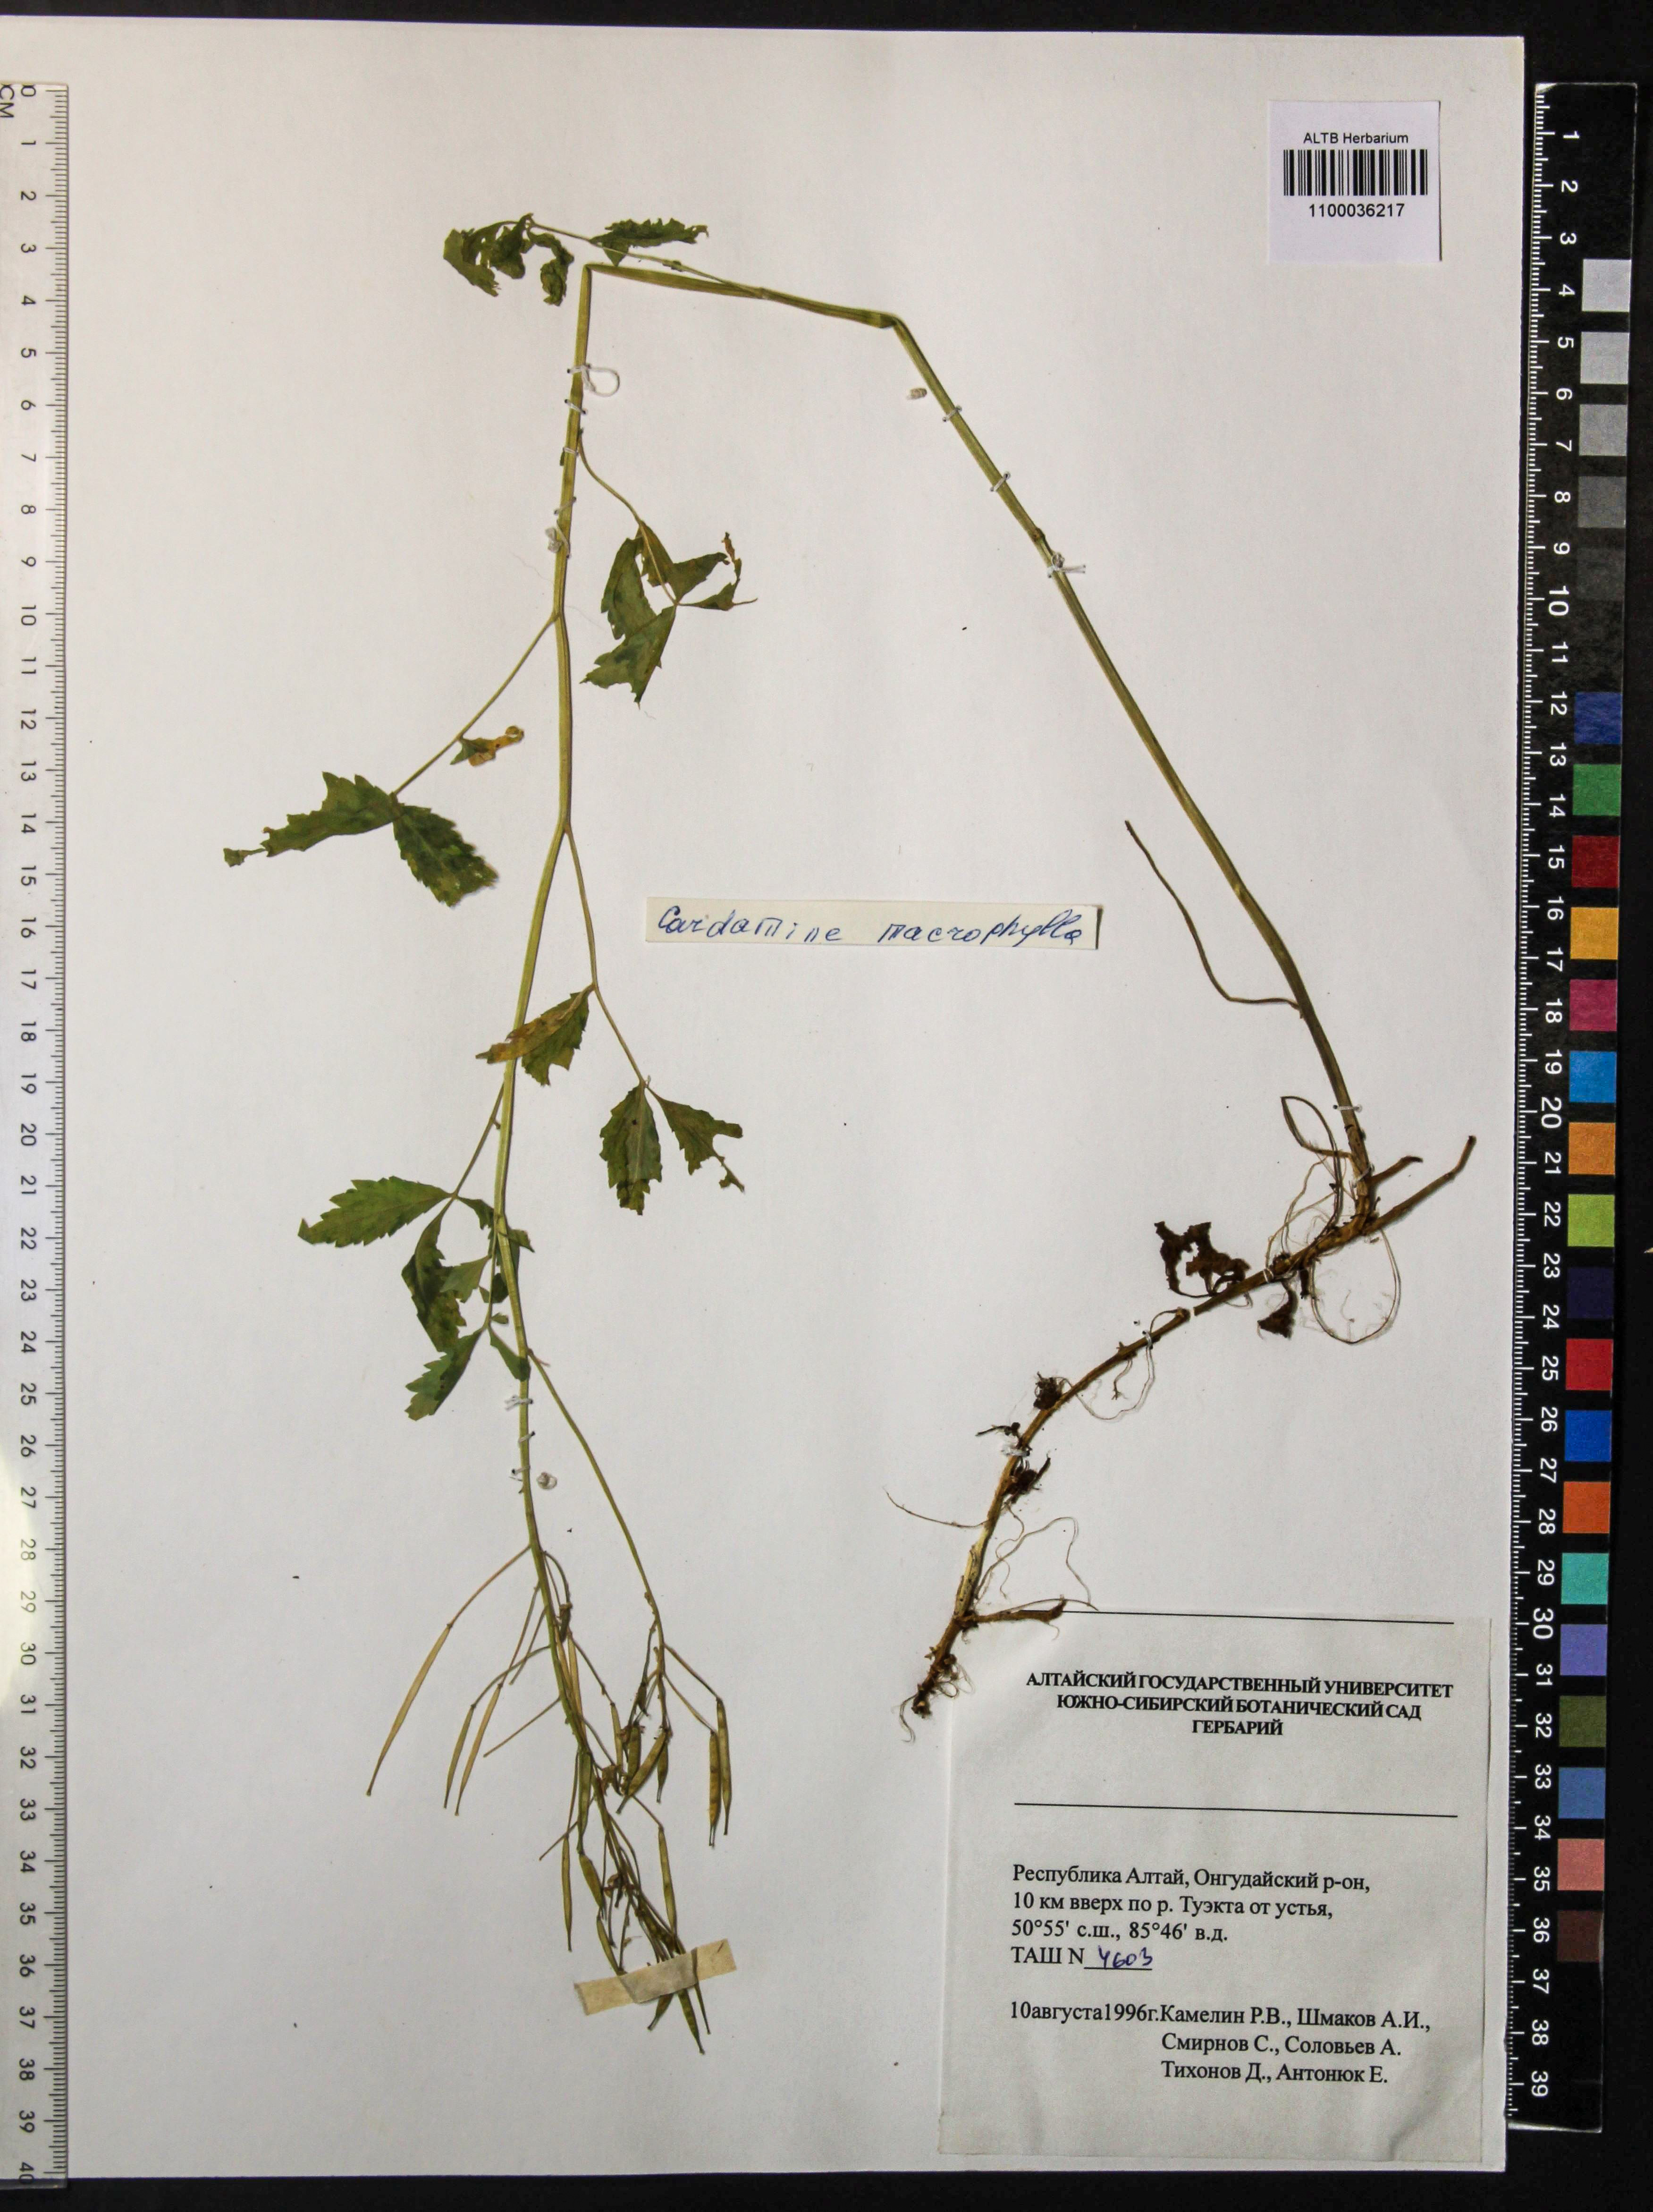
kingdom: Plantae
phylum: Tracheophyta
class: Magnoliopsida
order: Brassicales
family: Brassicaceae
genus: Cardamine
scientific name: Cardamine macrophylla
